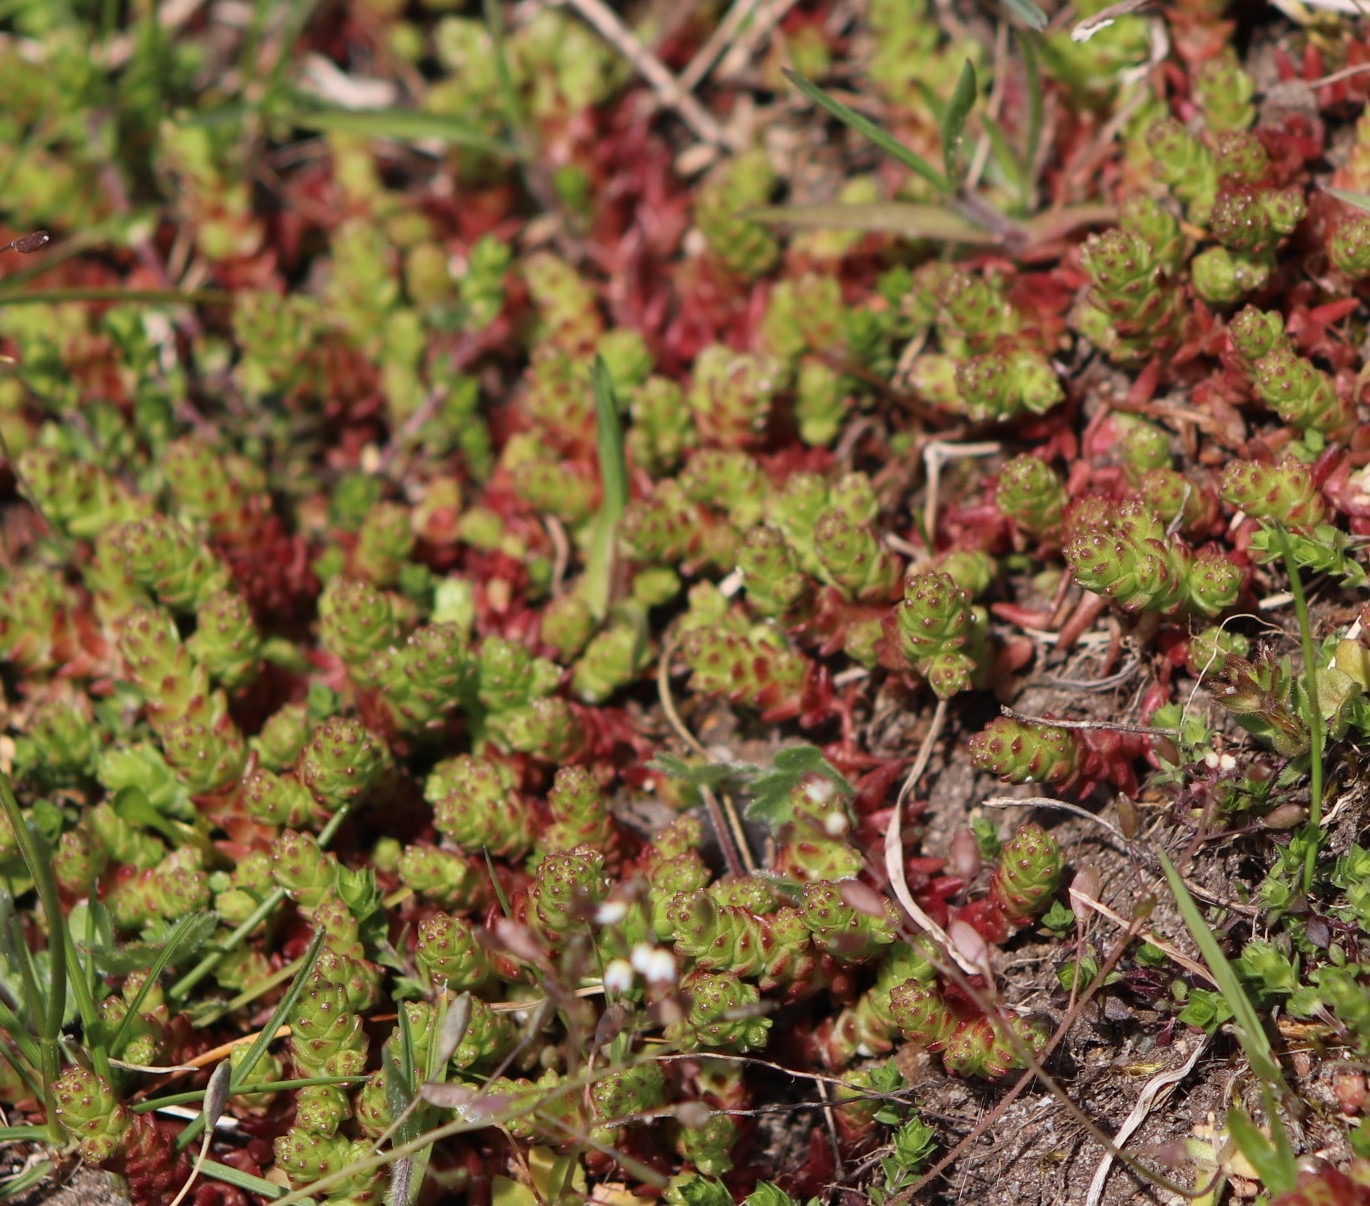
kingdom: Plantae
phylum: Tracheophyta
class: Magnoliopsida
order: Saxifragales
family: Crassulaceae
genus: Sedum
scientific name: Sedum acre
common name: Bidende stenurt
